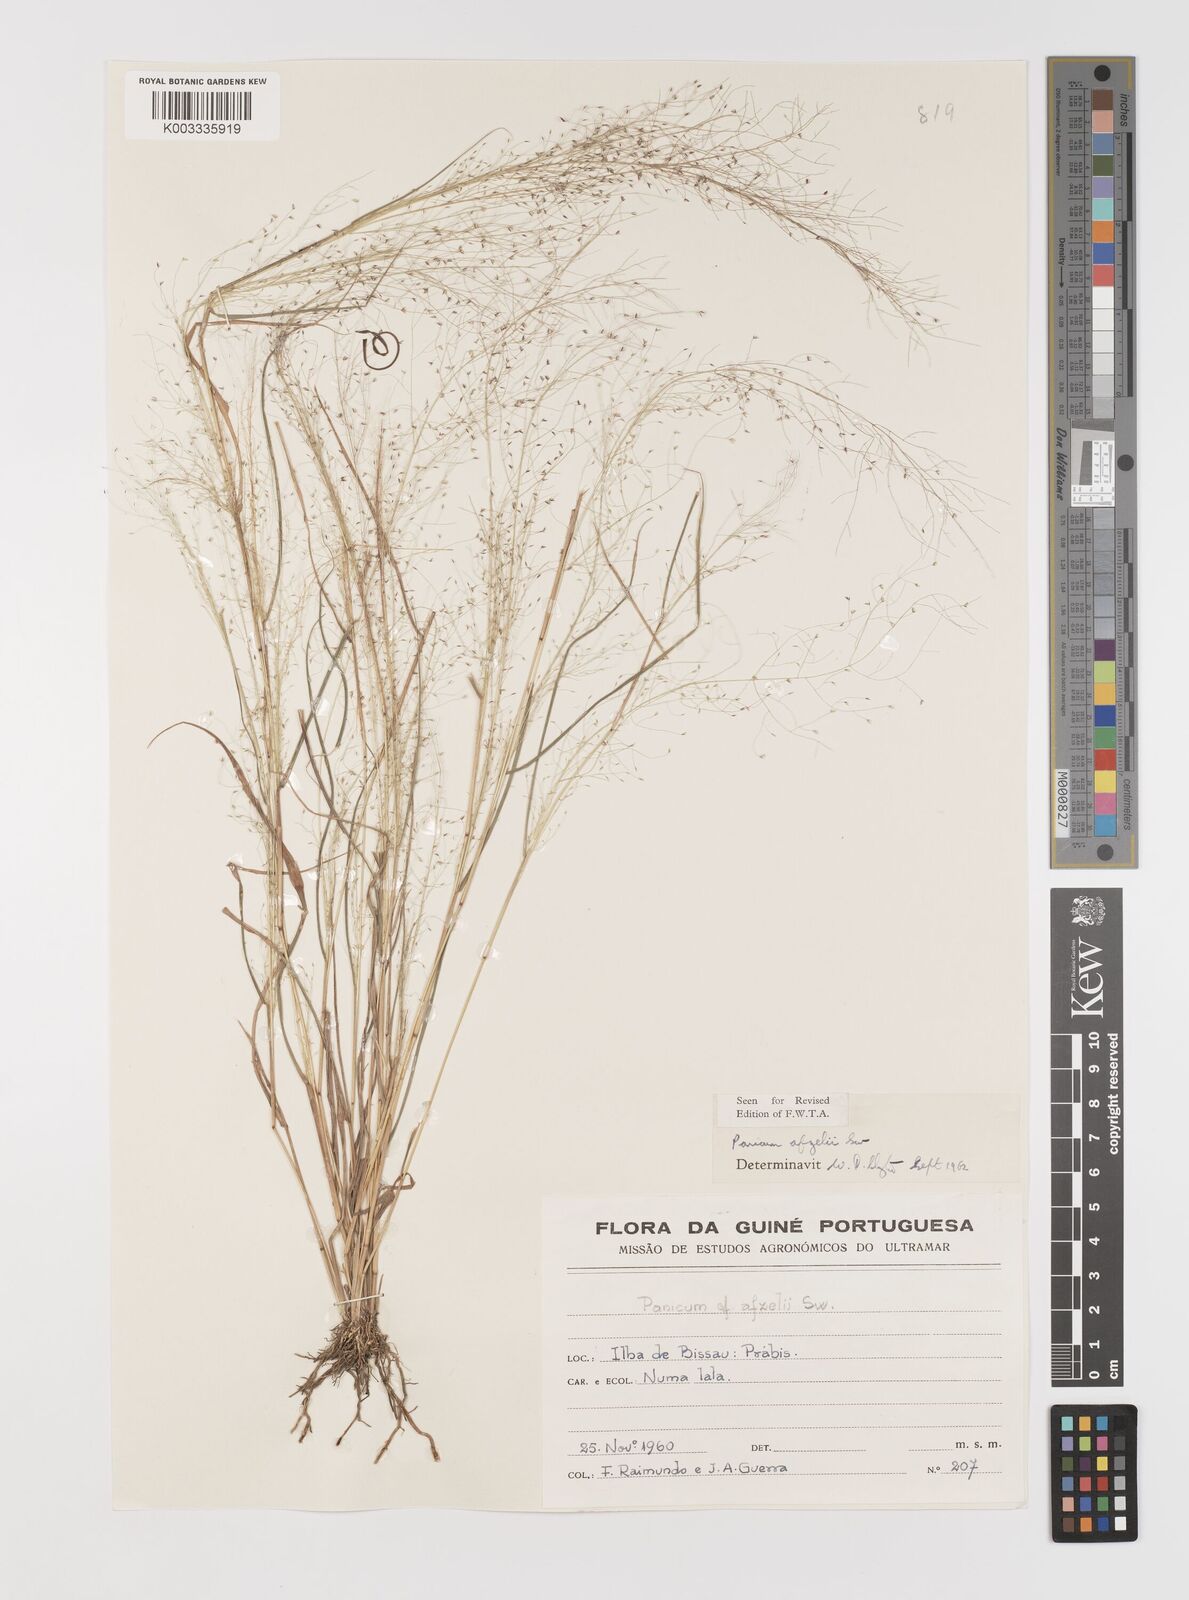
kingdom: Plantae
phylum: Tracheophyta
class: Liliopsida
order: Poales
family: Poaceae
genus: Panicum
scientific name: Panicum afzelii
